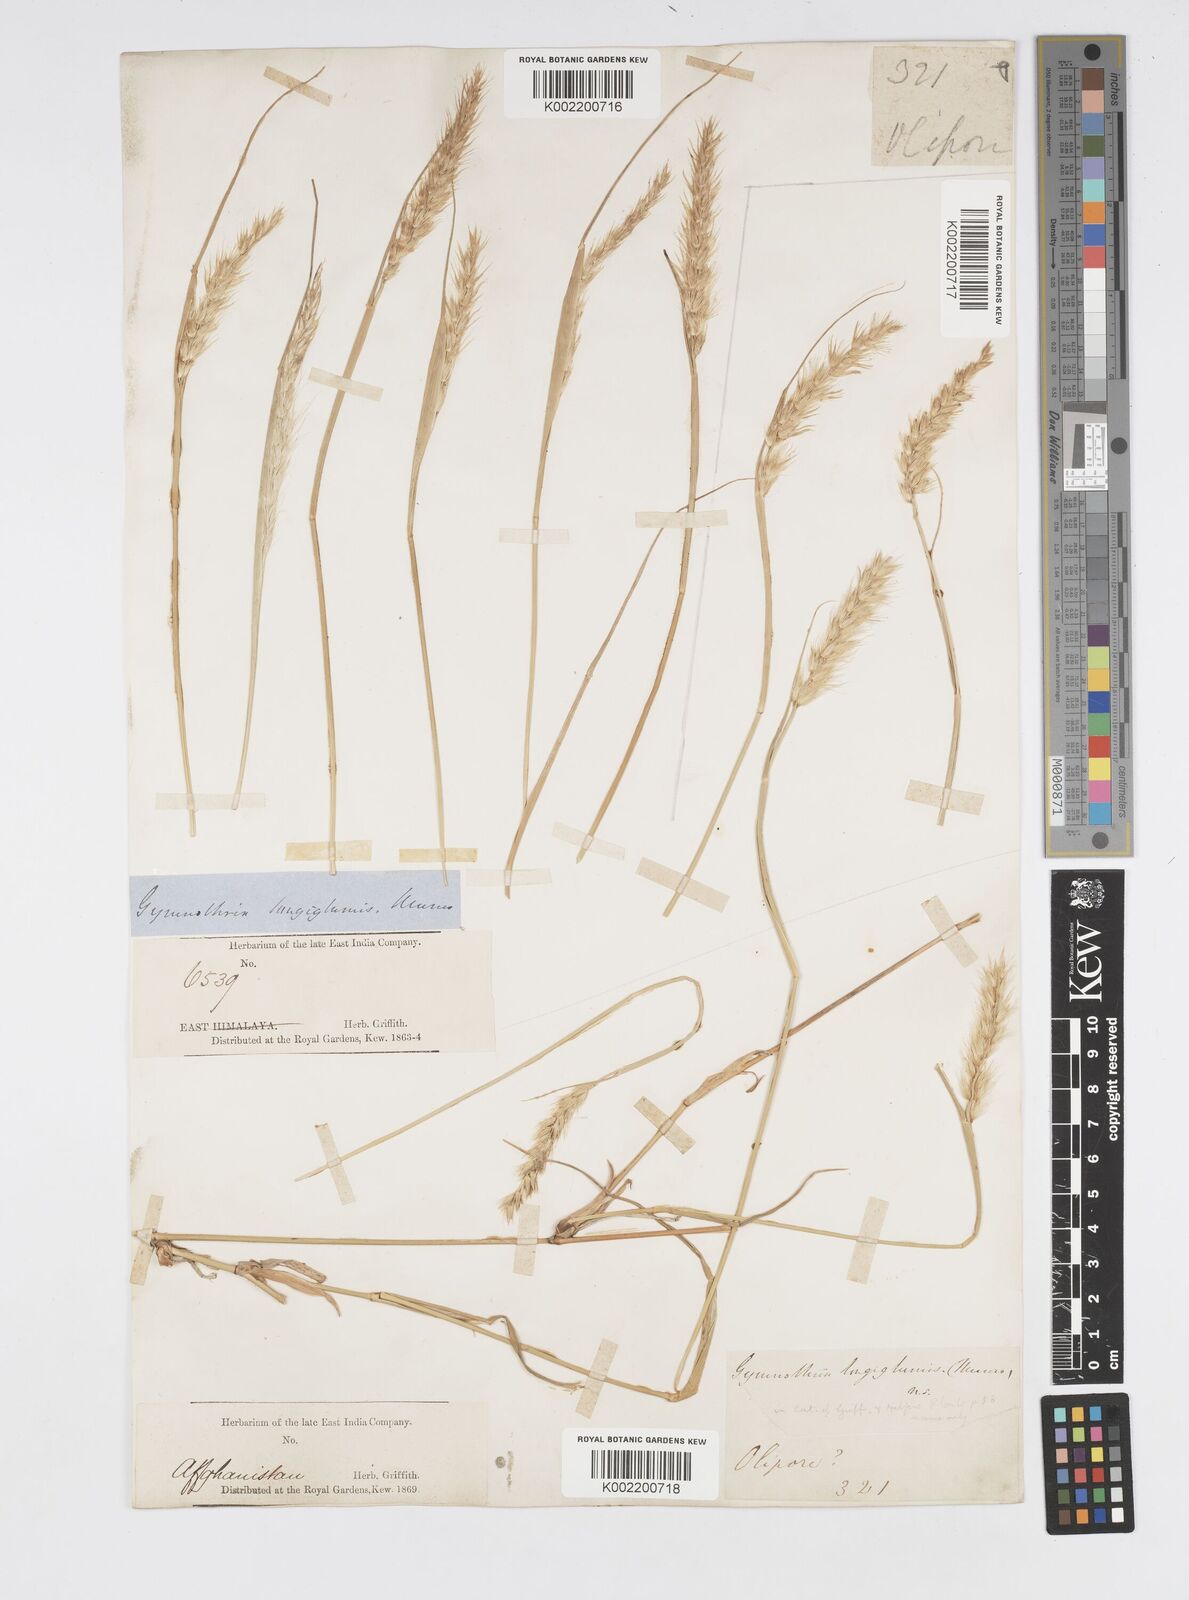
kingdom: Plantae
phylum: Tracheophyta
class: Liliopsida
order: Poales
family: Poaceae
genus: Cenchrus
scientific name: Cenchrus divisus
